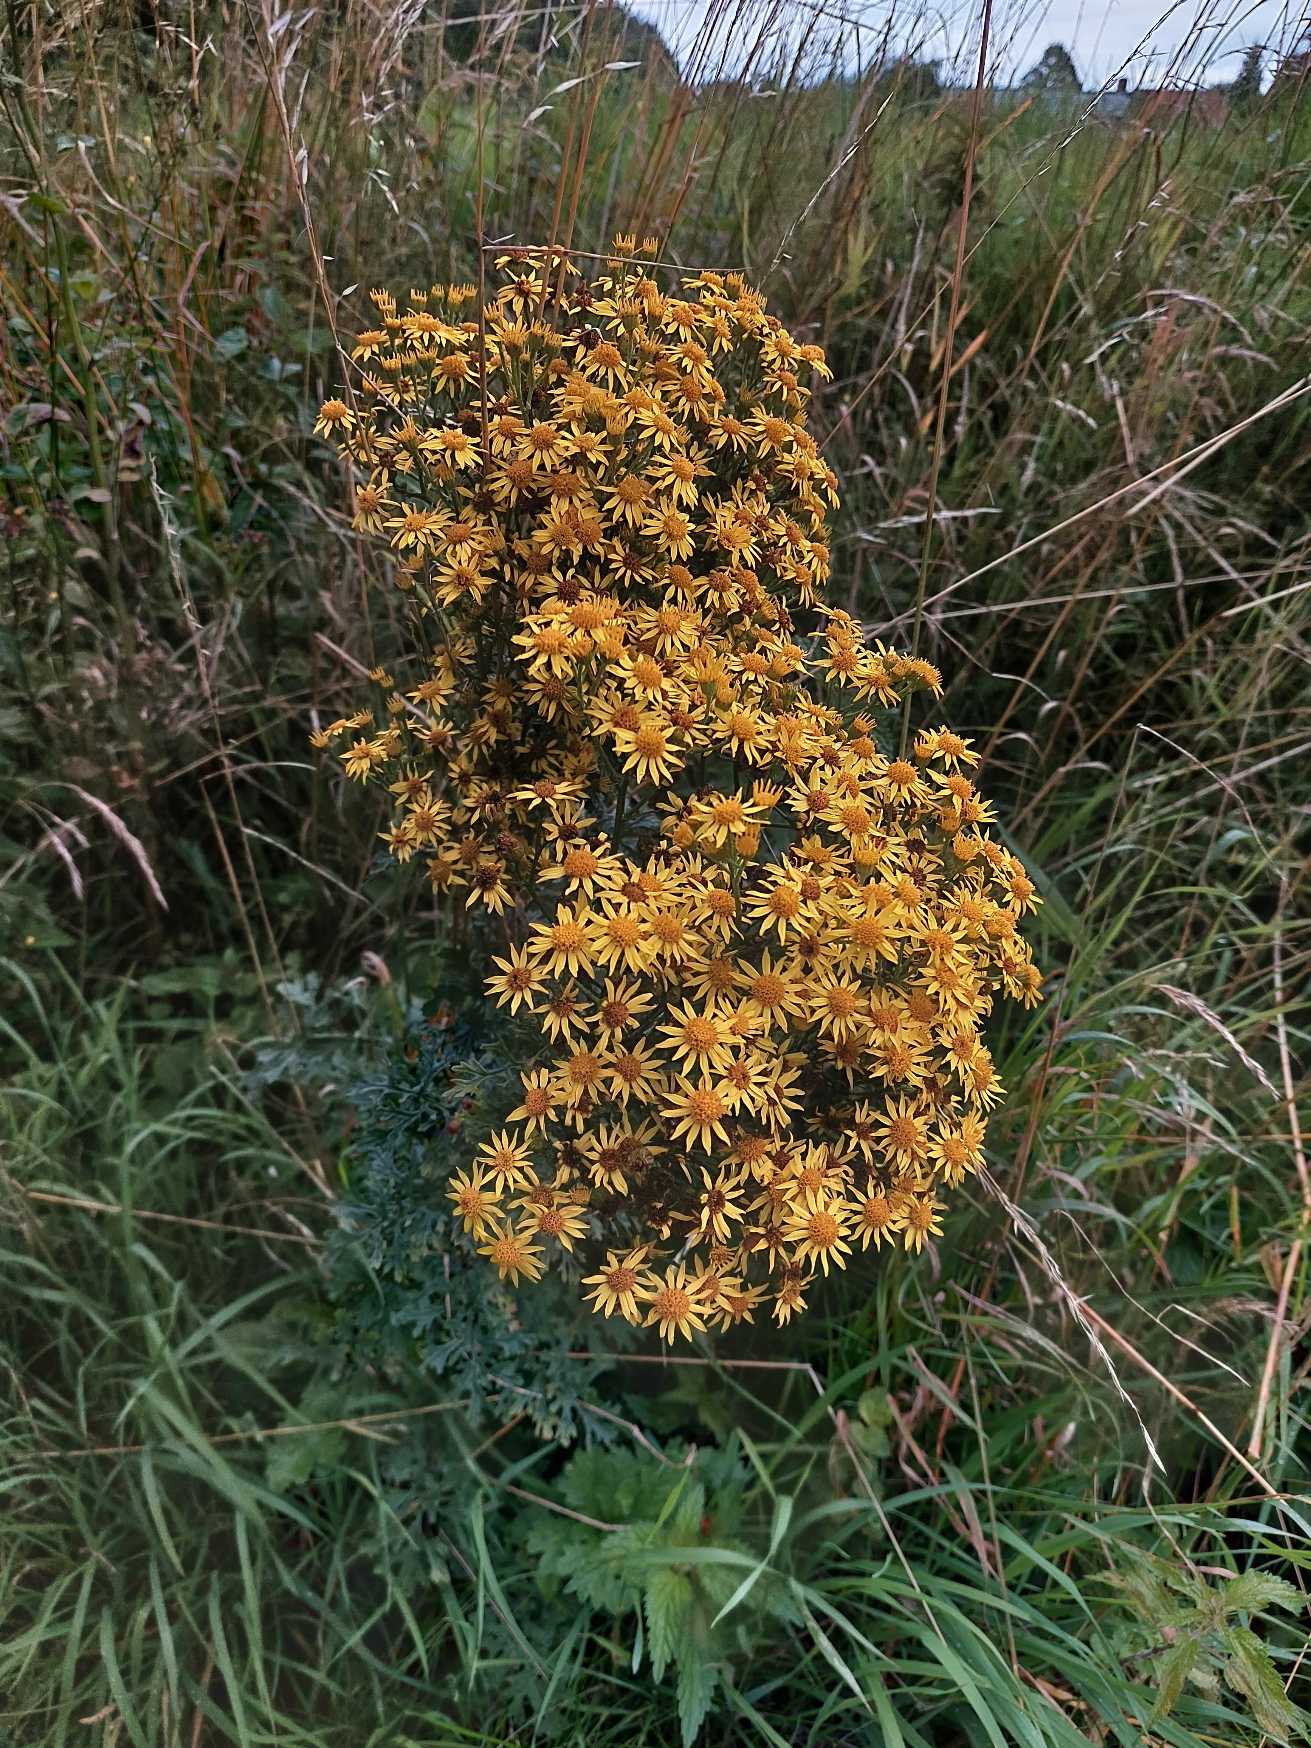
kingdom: Plantae
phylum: Tracheophyta
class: Magnoliopsida
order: Asterales
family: Asteraceae
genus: Jacobaea
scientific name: Jacobaea vulgaris
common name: Eng-brandbæger
